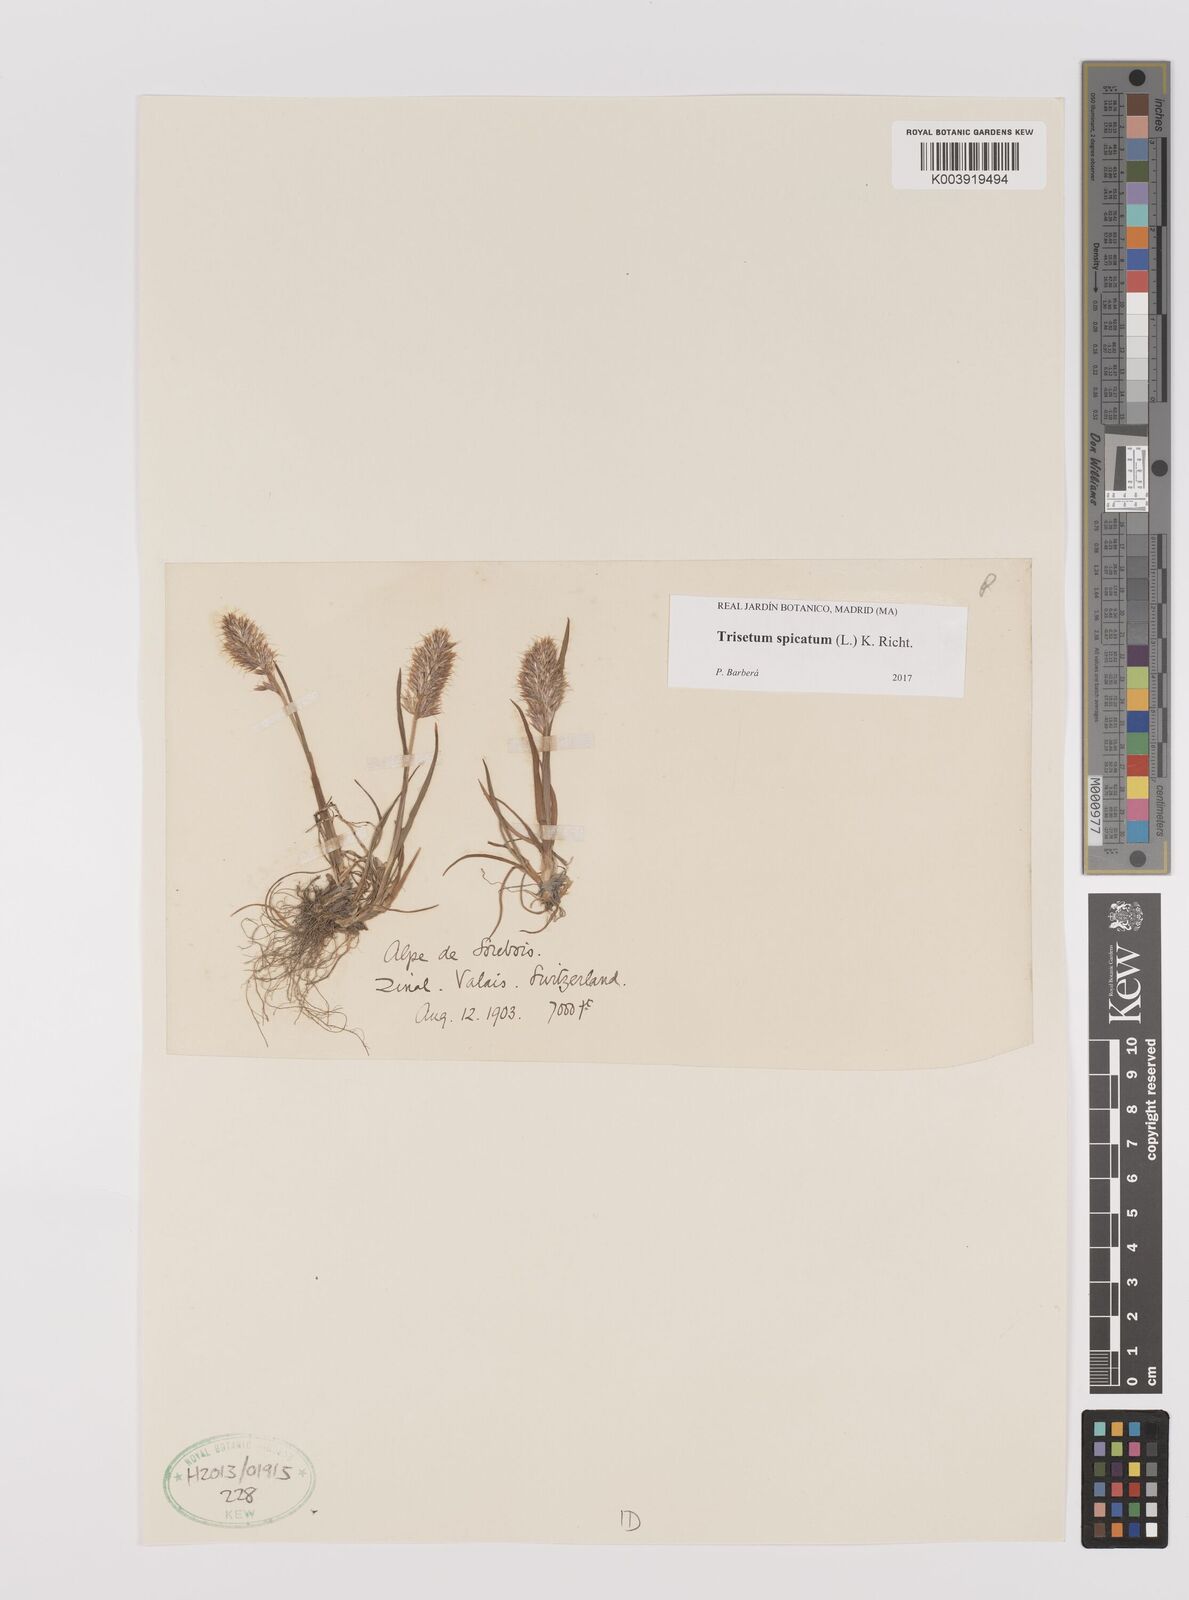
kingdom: Plantae
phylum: Tracheophyta
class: Liliopsida
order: Poales
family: Poaceae
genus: Koeleria
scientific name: Koeleria spicata
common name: Mountain trisetum
